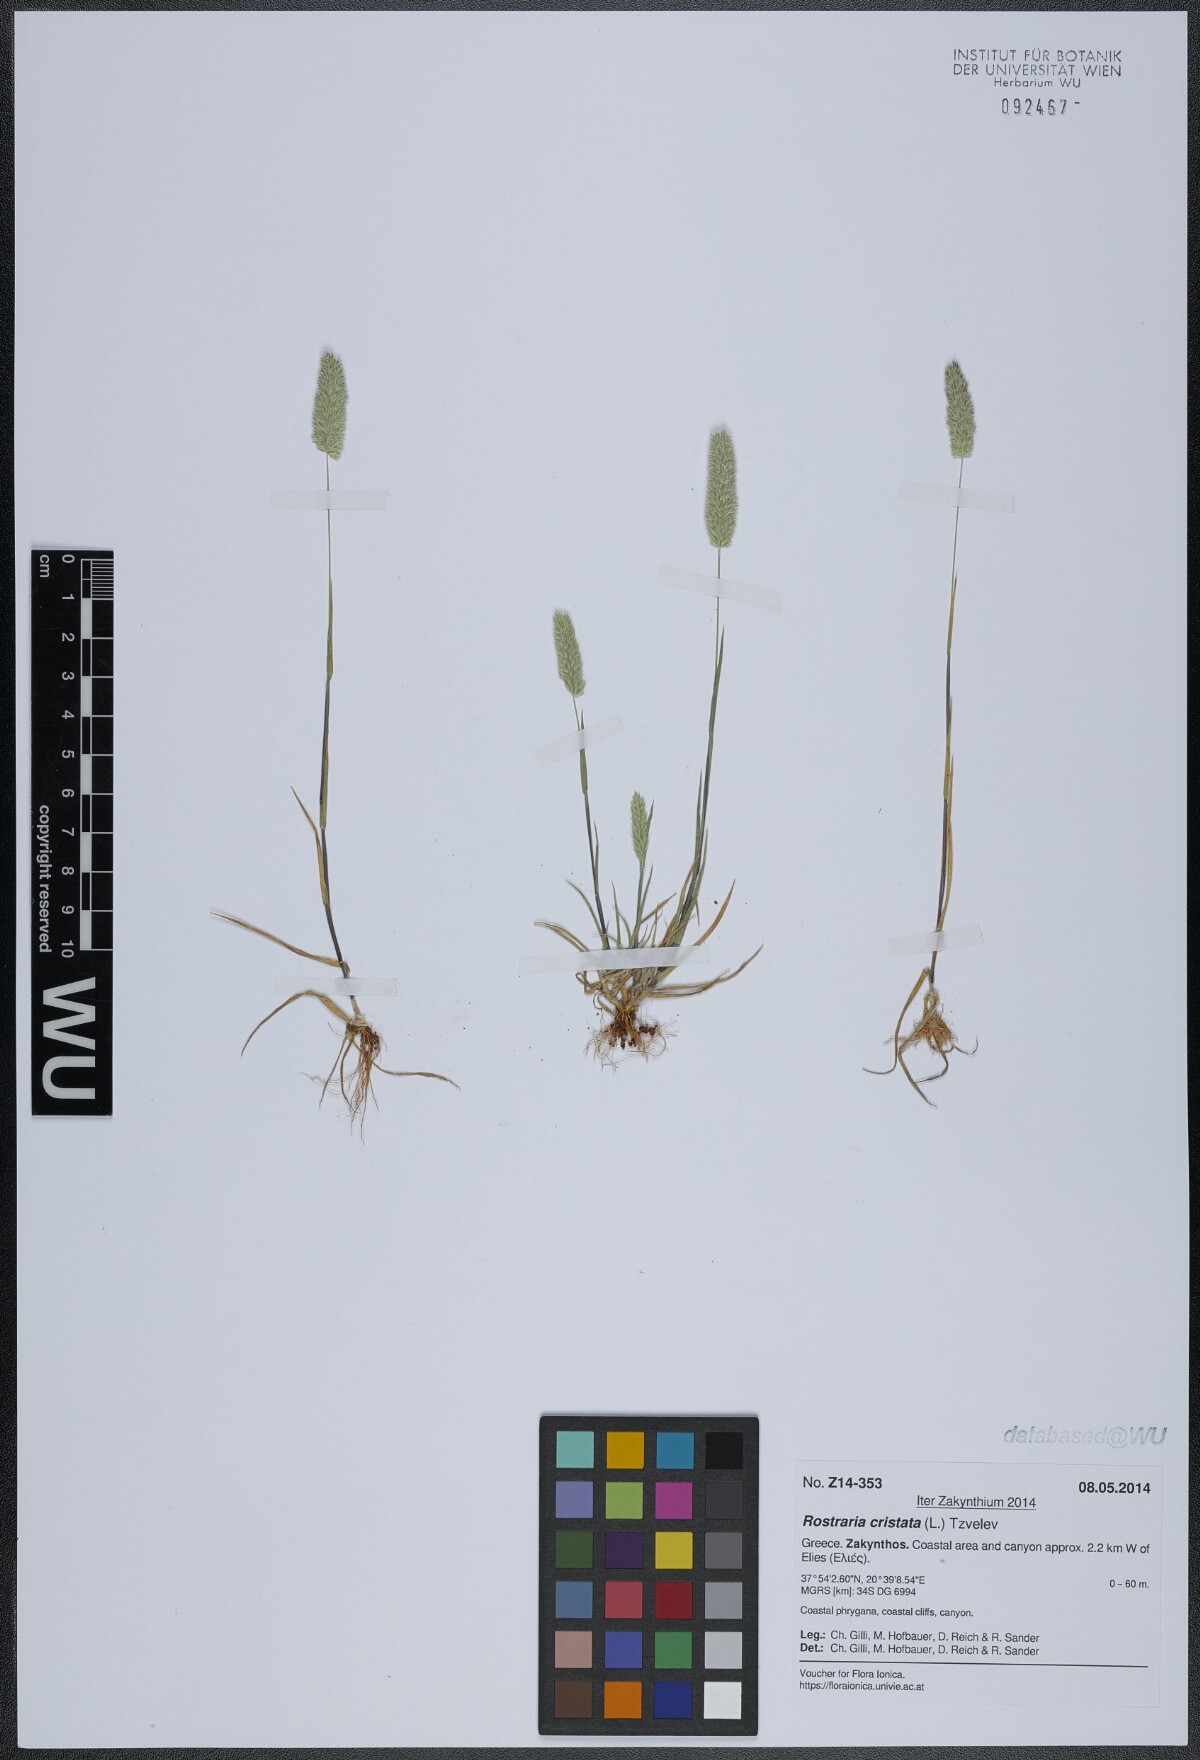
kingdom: Plantae
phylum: Tracheophyta
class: Liliopsida
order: Poales
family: Poaceae
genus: Rostraria
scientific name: Rostraria cristata
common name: Mediterranean hair-grass
